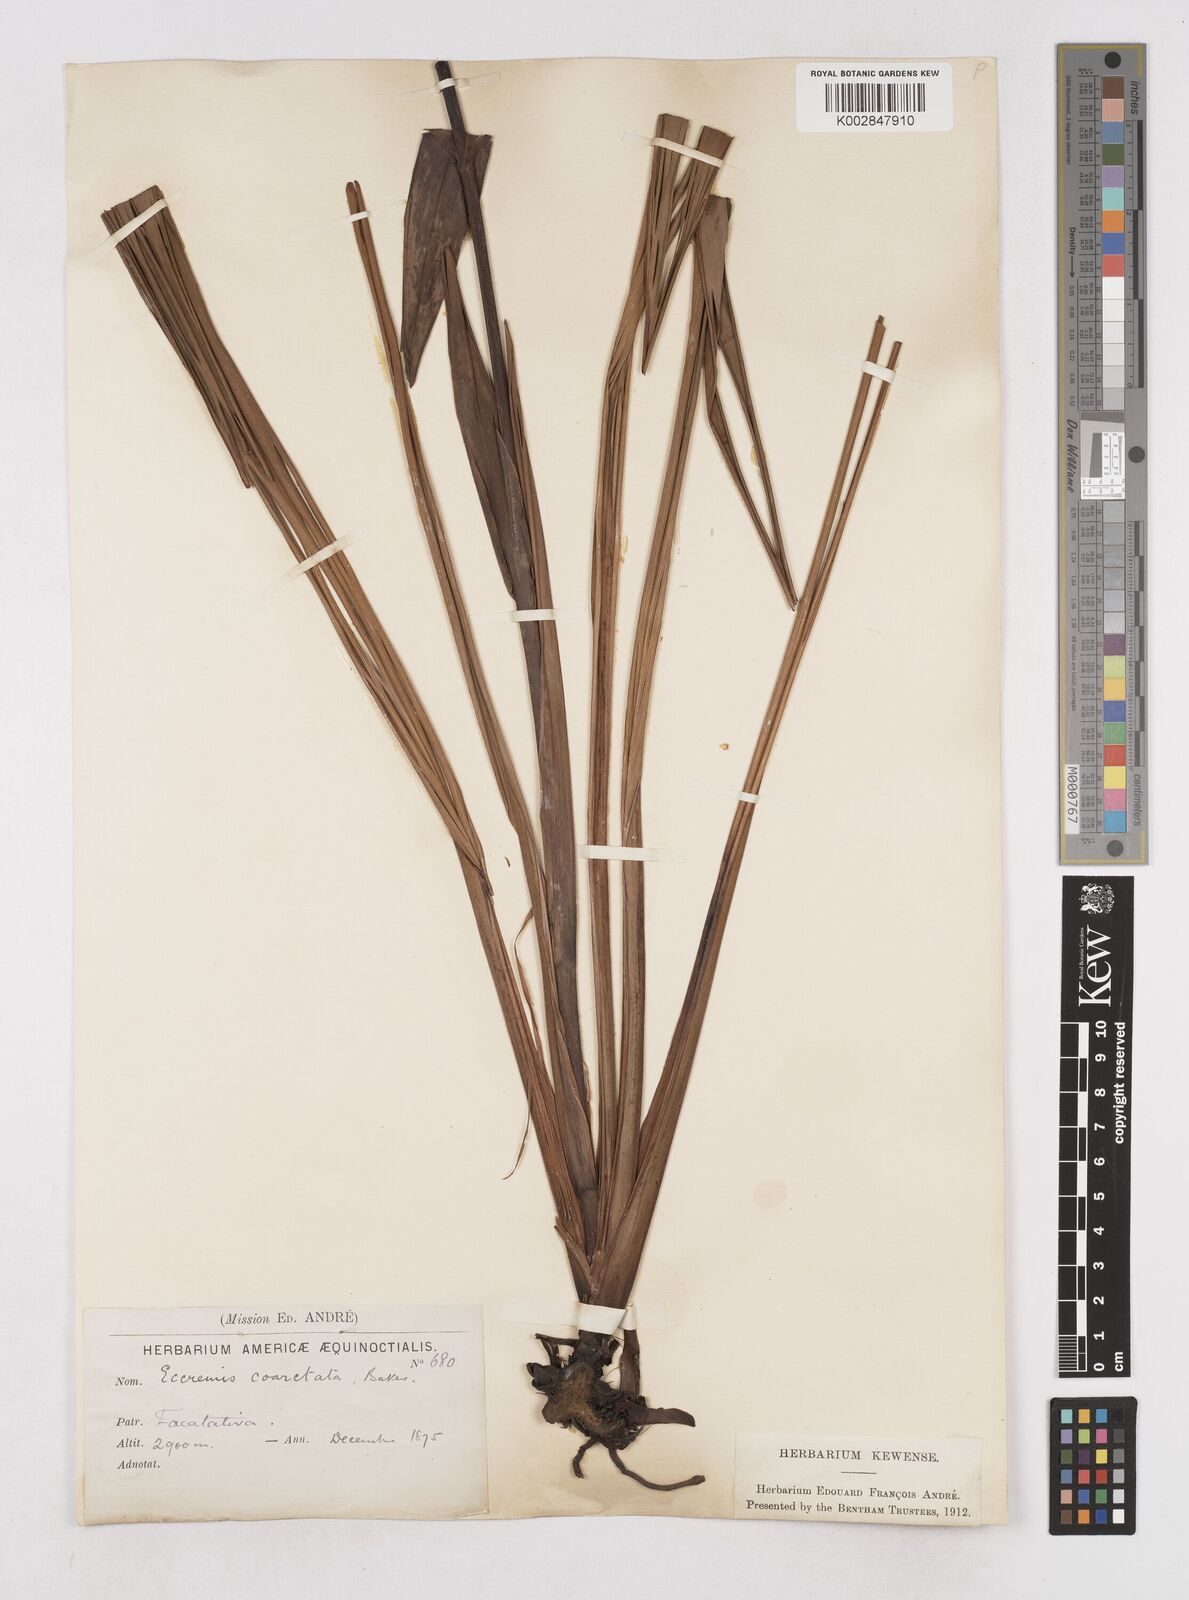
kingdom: Plantae
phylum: Tracheophyta
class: Liliopsida
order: Asparagales
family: Asphodelaceae
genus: Excremis
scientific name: Excremis coarctata
